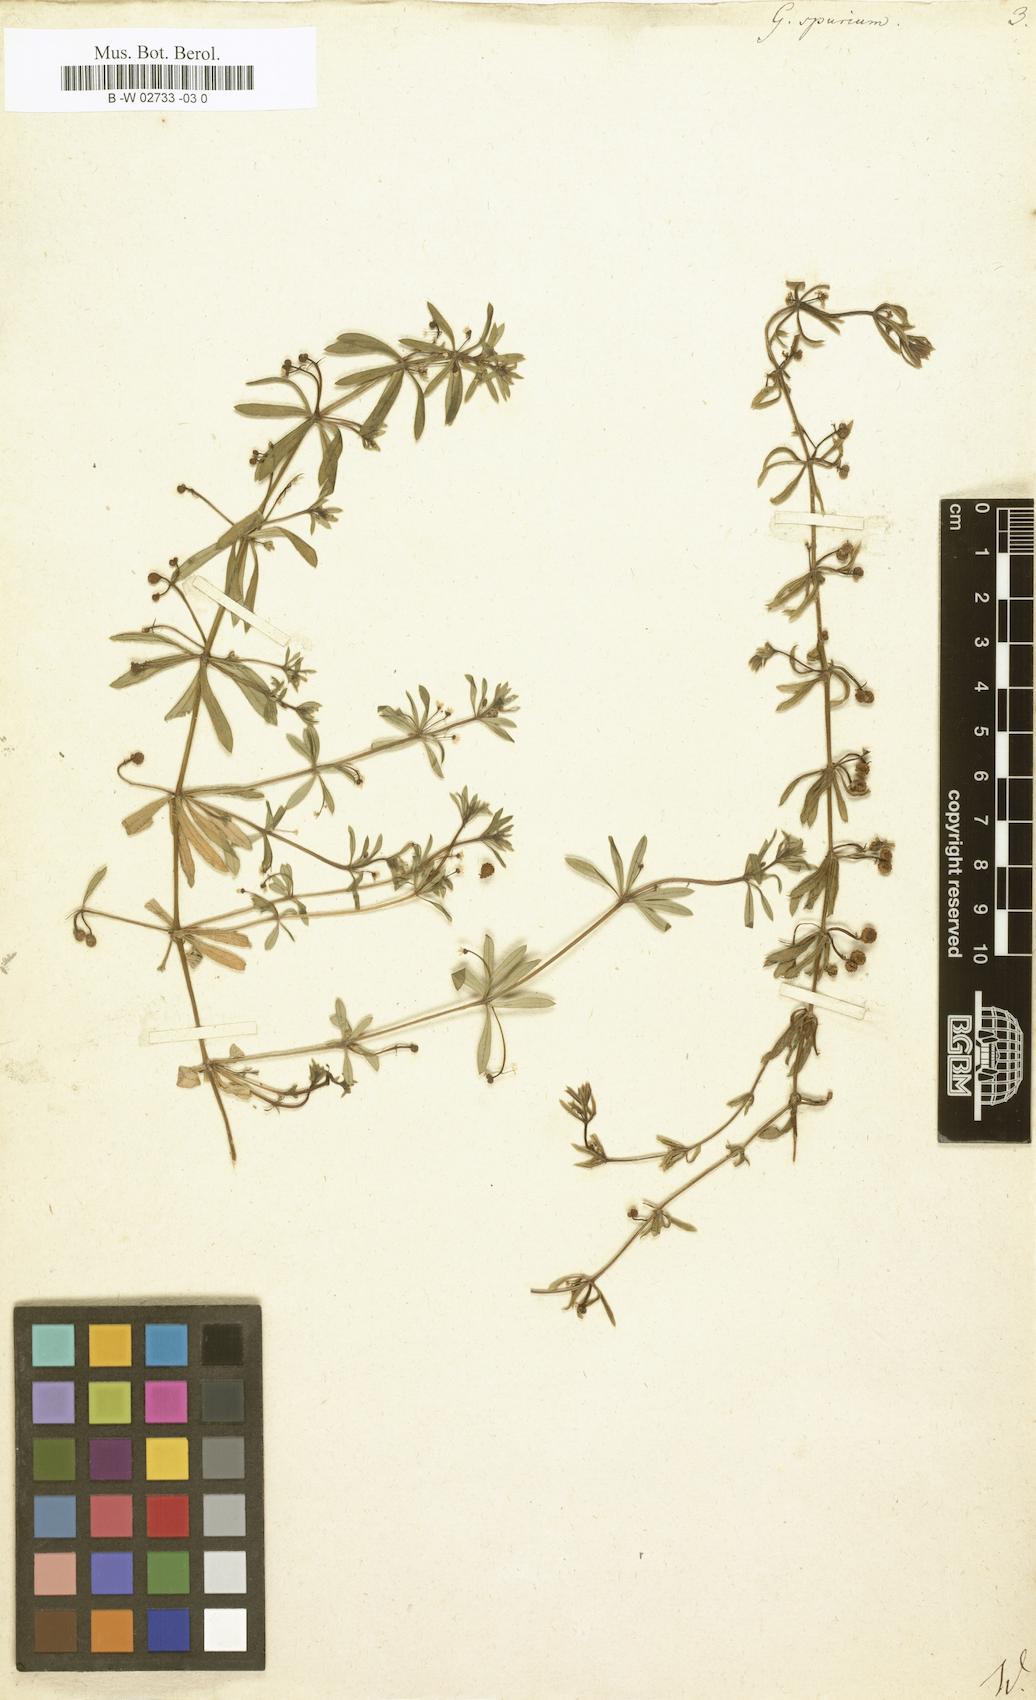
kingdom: Plantae
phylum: Tracheophyta
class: Magnoliopsida
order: Gentianales
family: Rubiaceae
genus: Galium
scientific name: Galium spurium
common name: False cleavers
